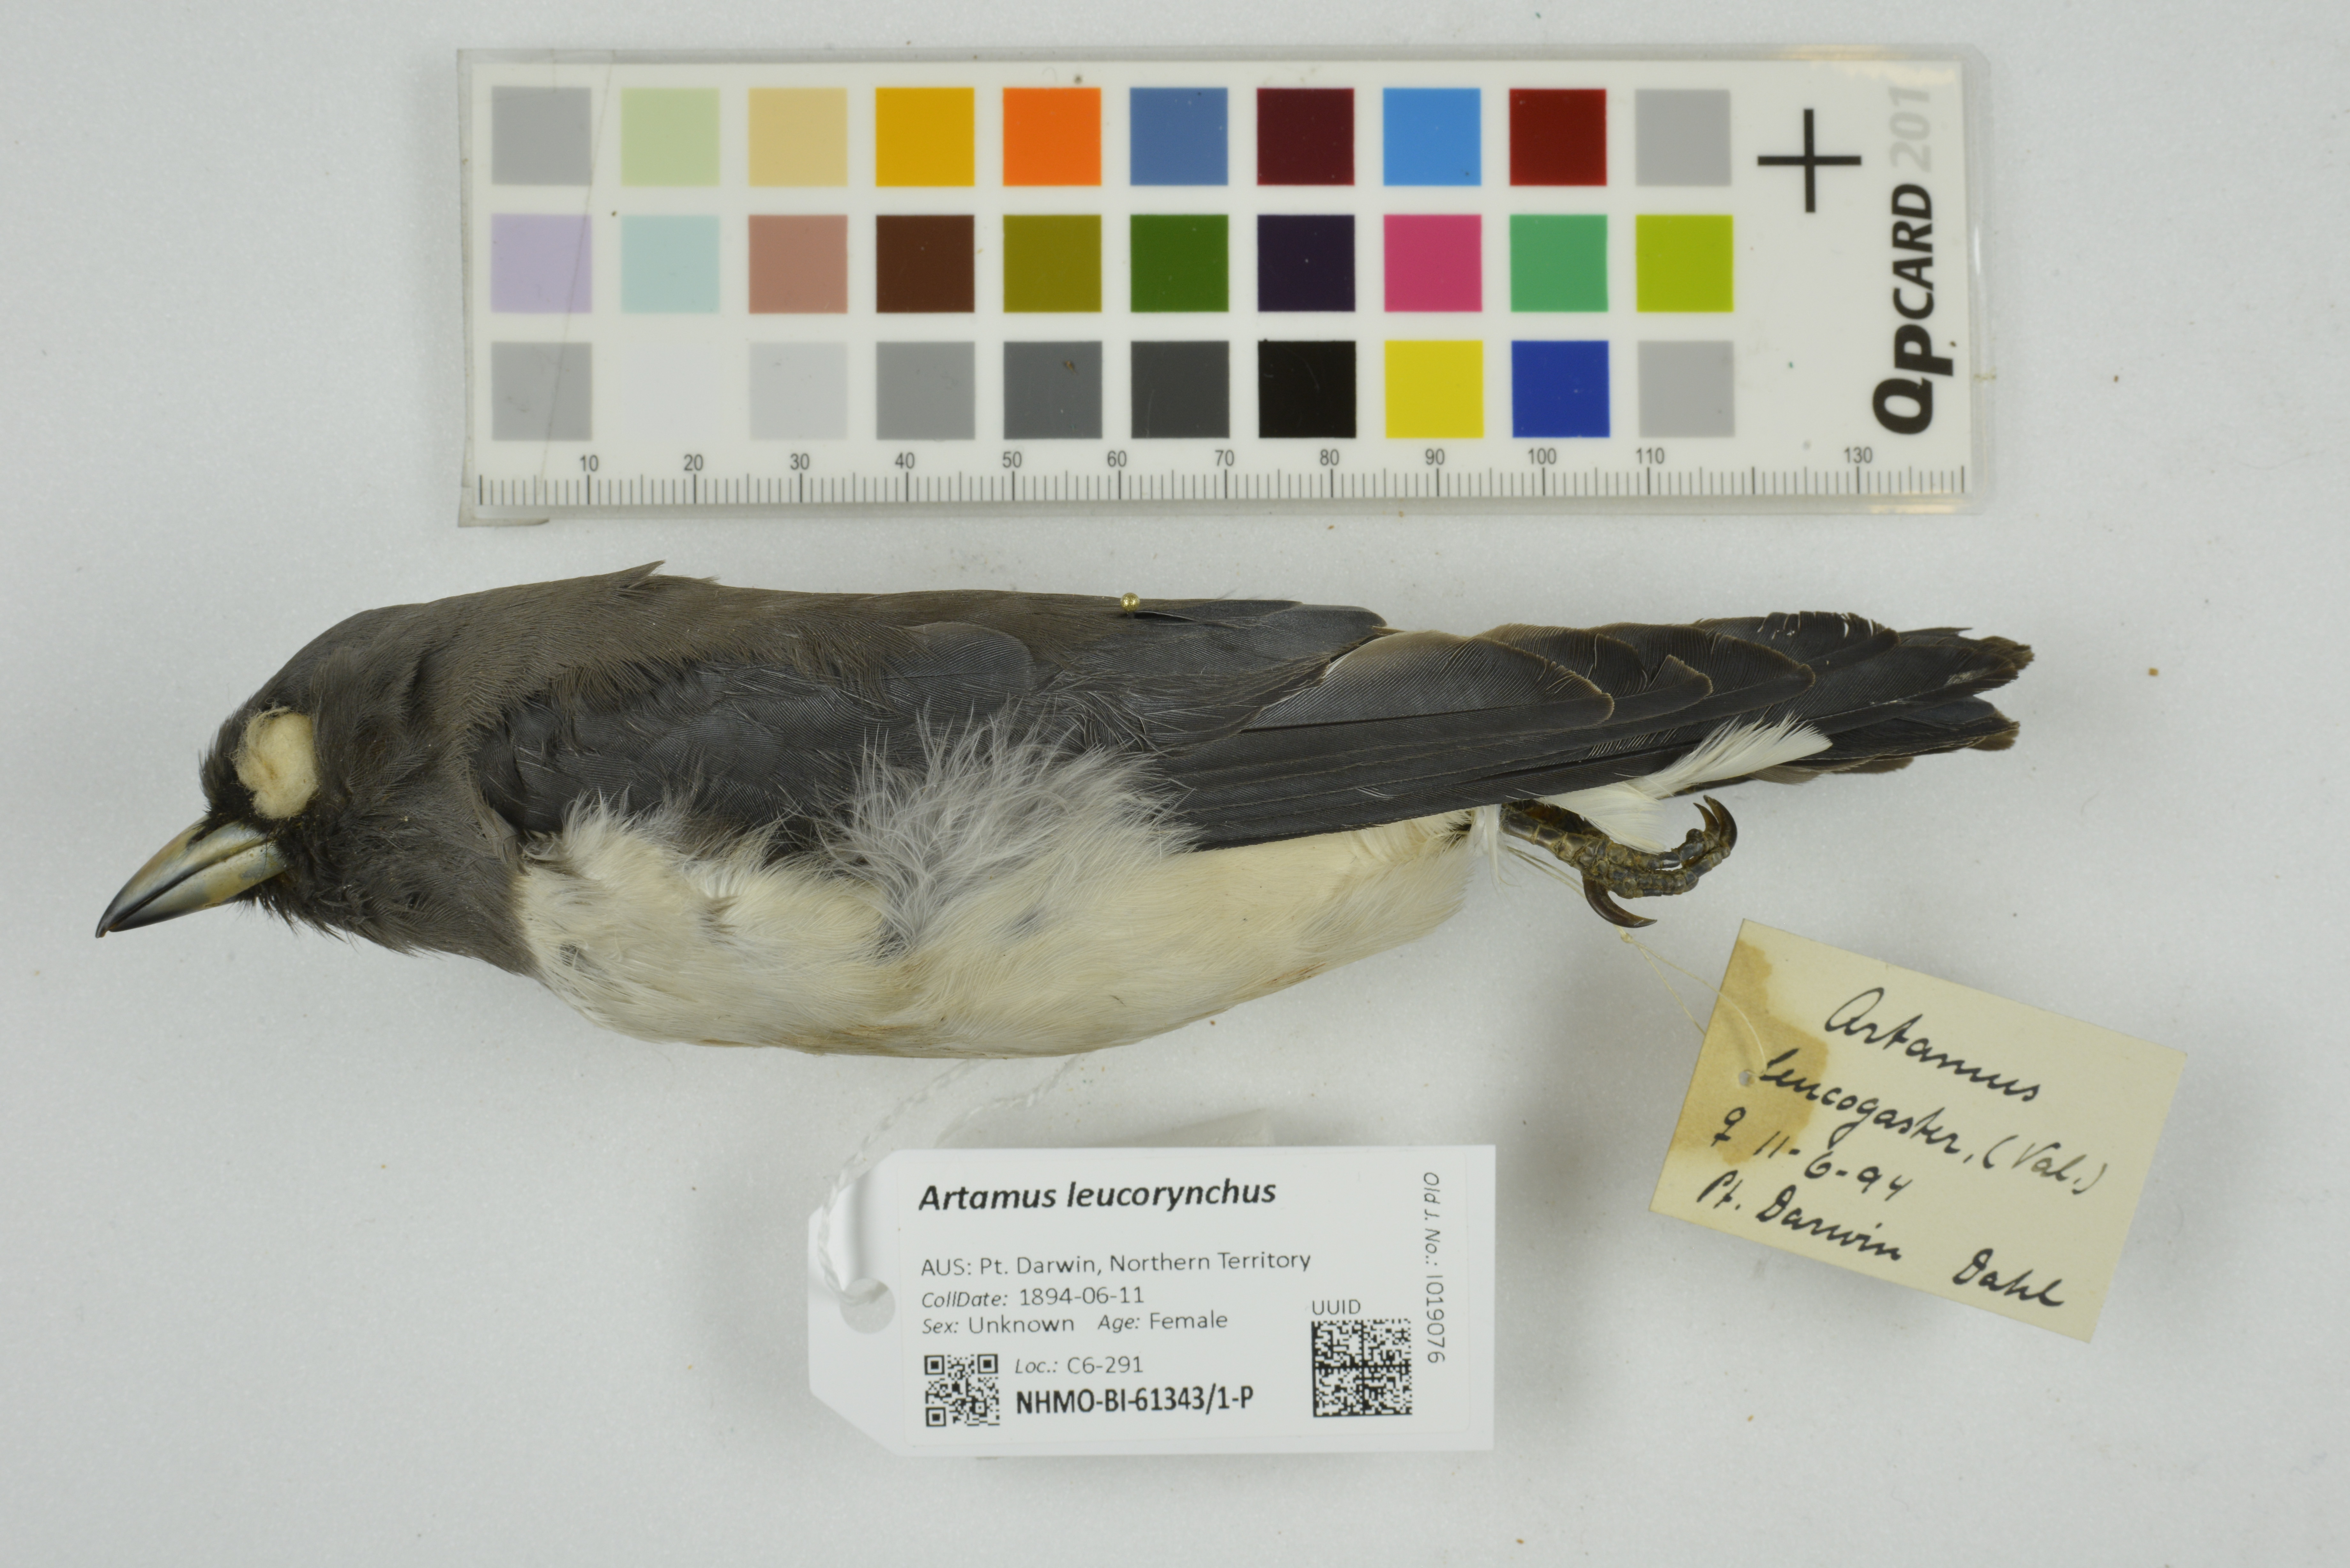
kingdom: Animalia
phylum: Chordata
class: Aves
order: Passeriformes
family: Artamidae
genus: Artamus
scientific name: Artamus leucoryn
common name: White-breasted woodswallow
